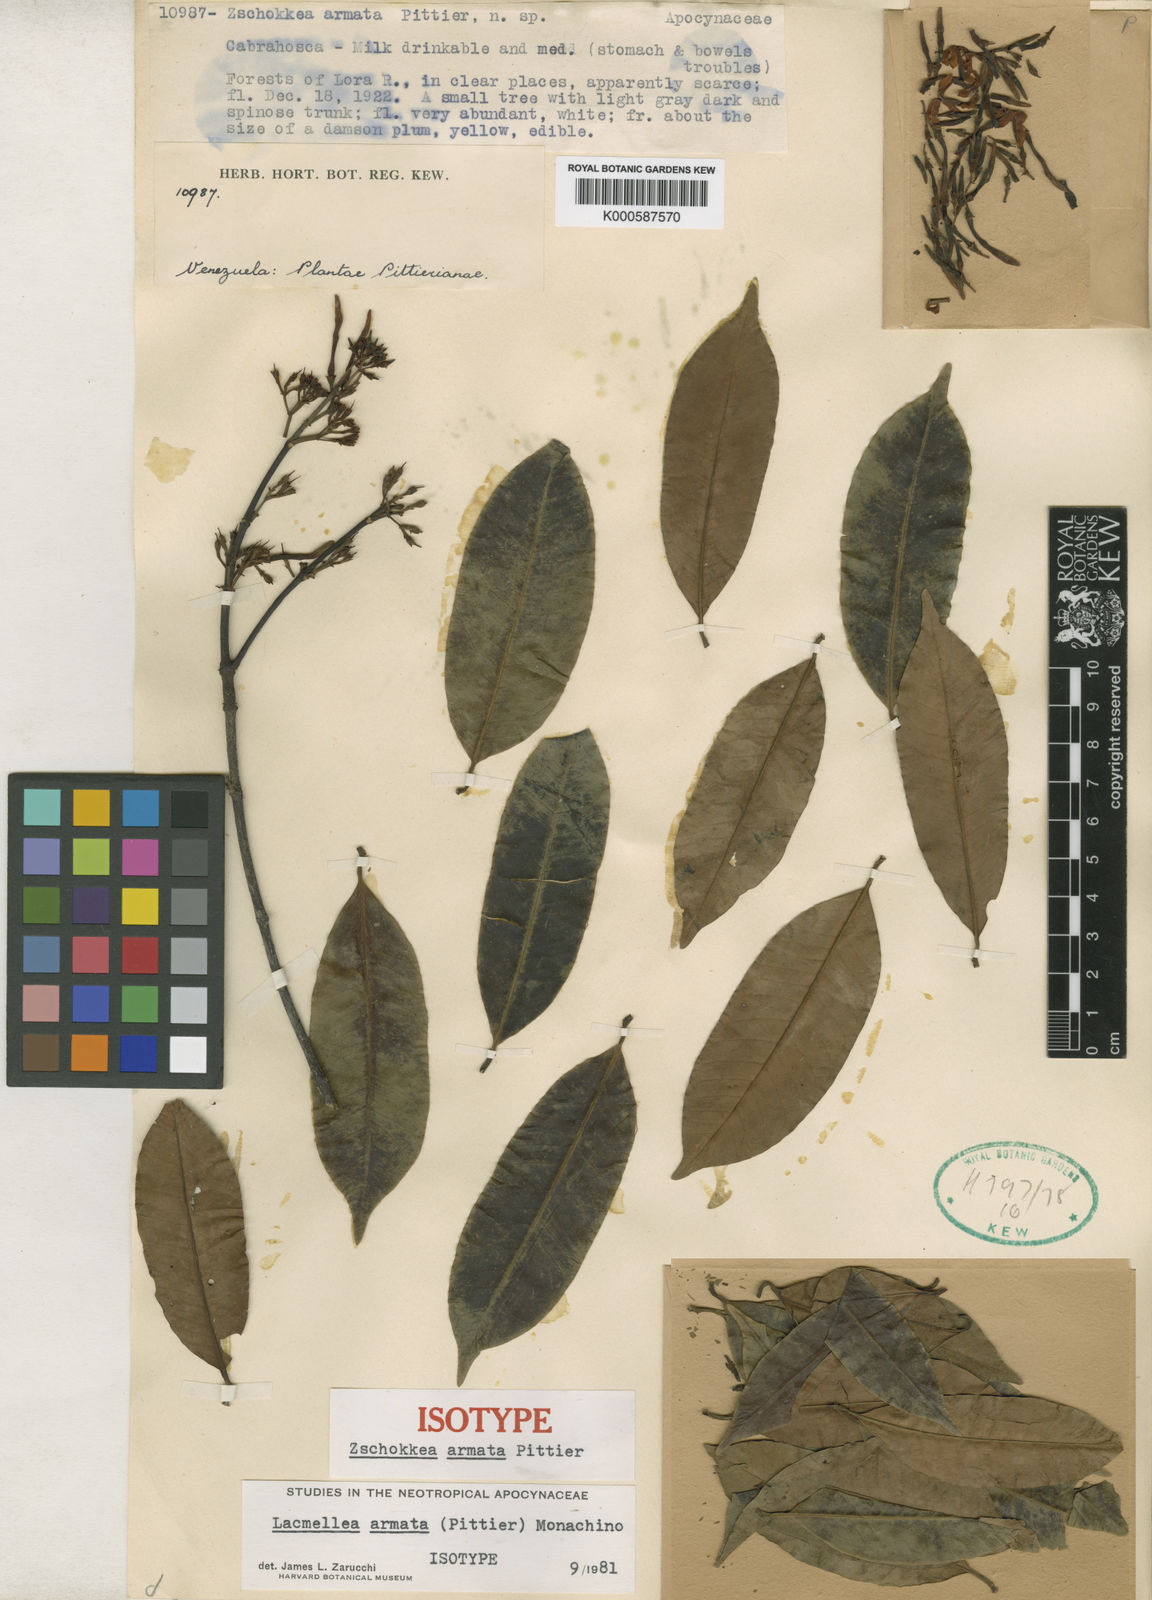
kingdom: Plantae
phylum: Tracheophyta
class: Magnoliopsida
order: Gentianales
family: Apocynaceae
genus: Lacmellea
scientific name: Lacmellea edulis
